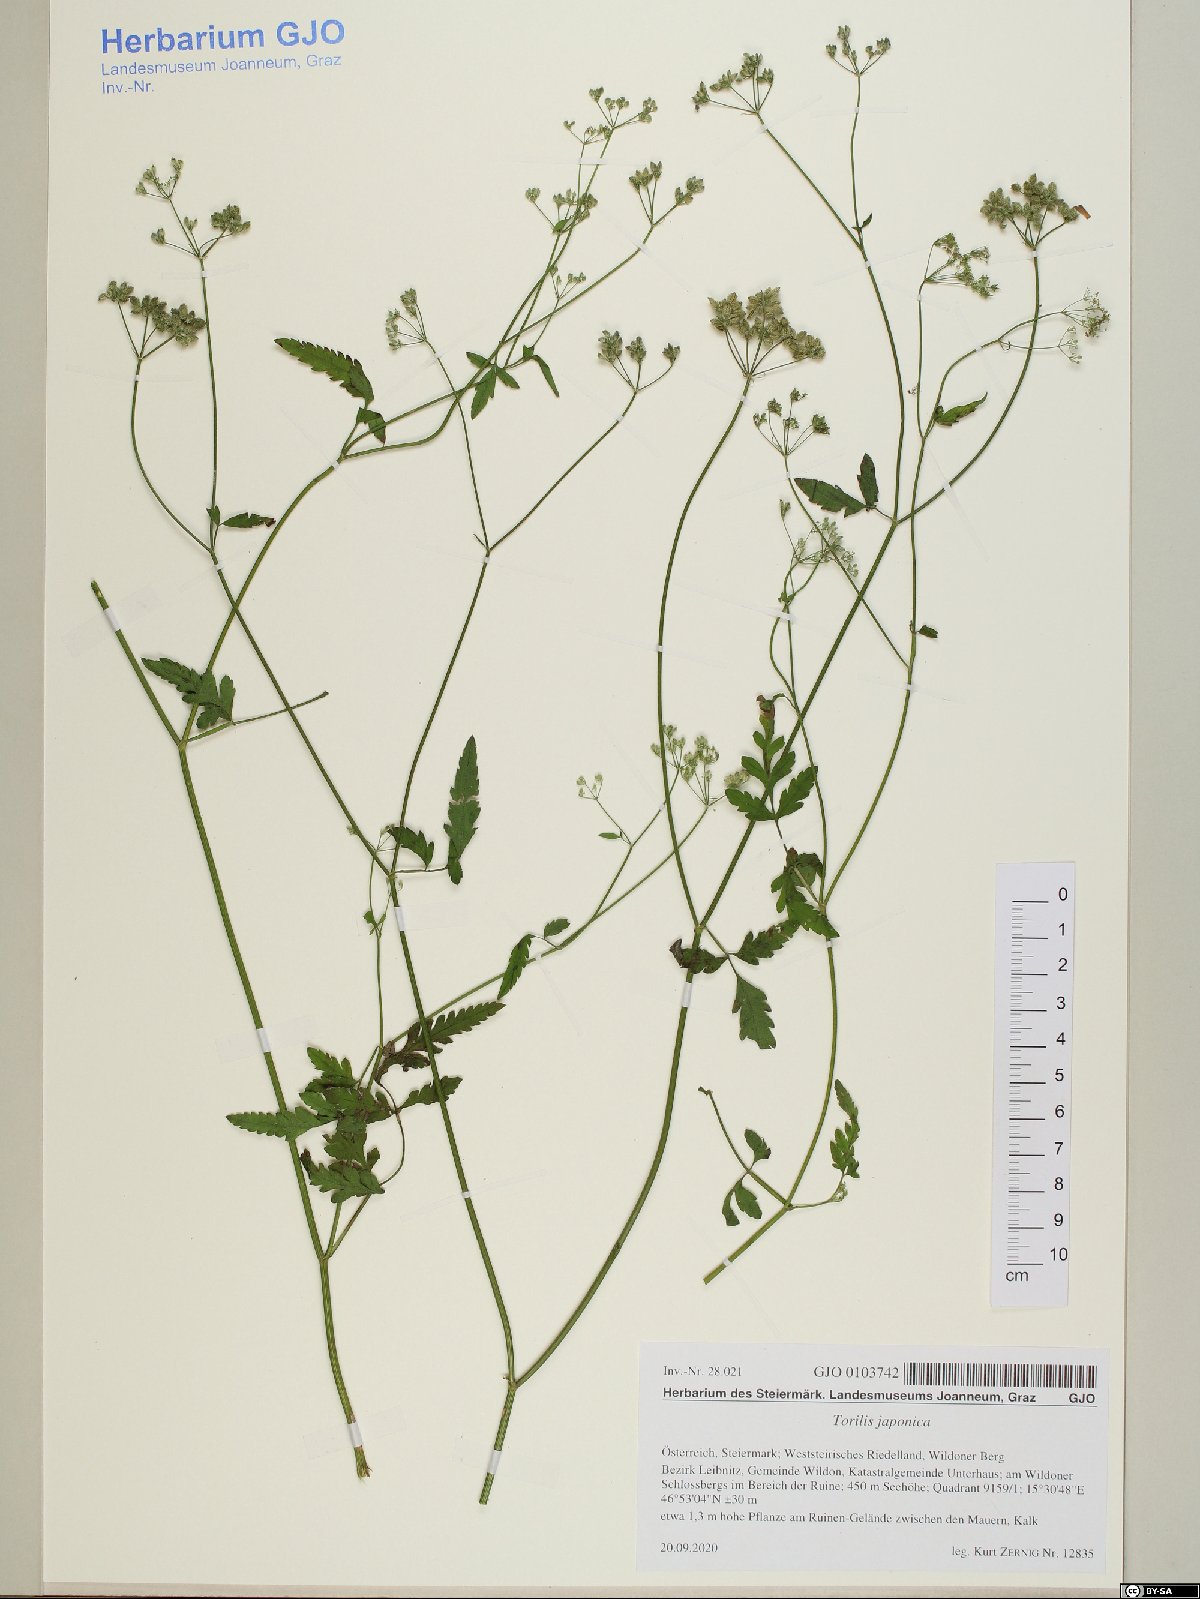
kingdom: Plantae
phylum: Tracheophyta
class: Magnoliopsida
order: Apiales
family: Apiaceae
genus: Torilis
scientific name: Torilis japonica
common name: Upright hedge-parsley
